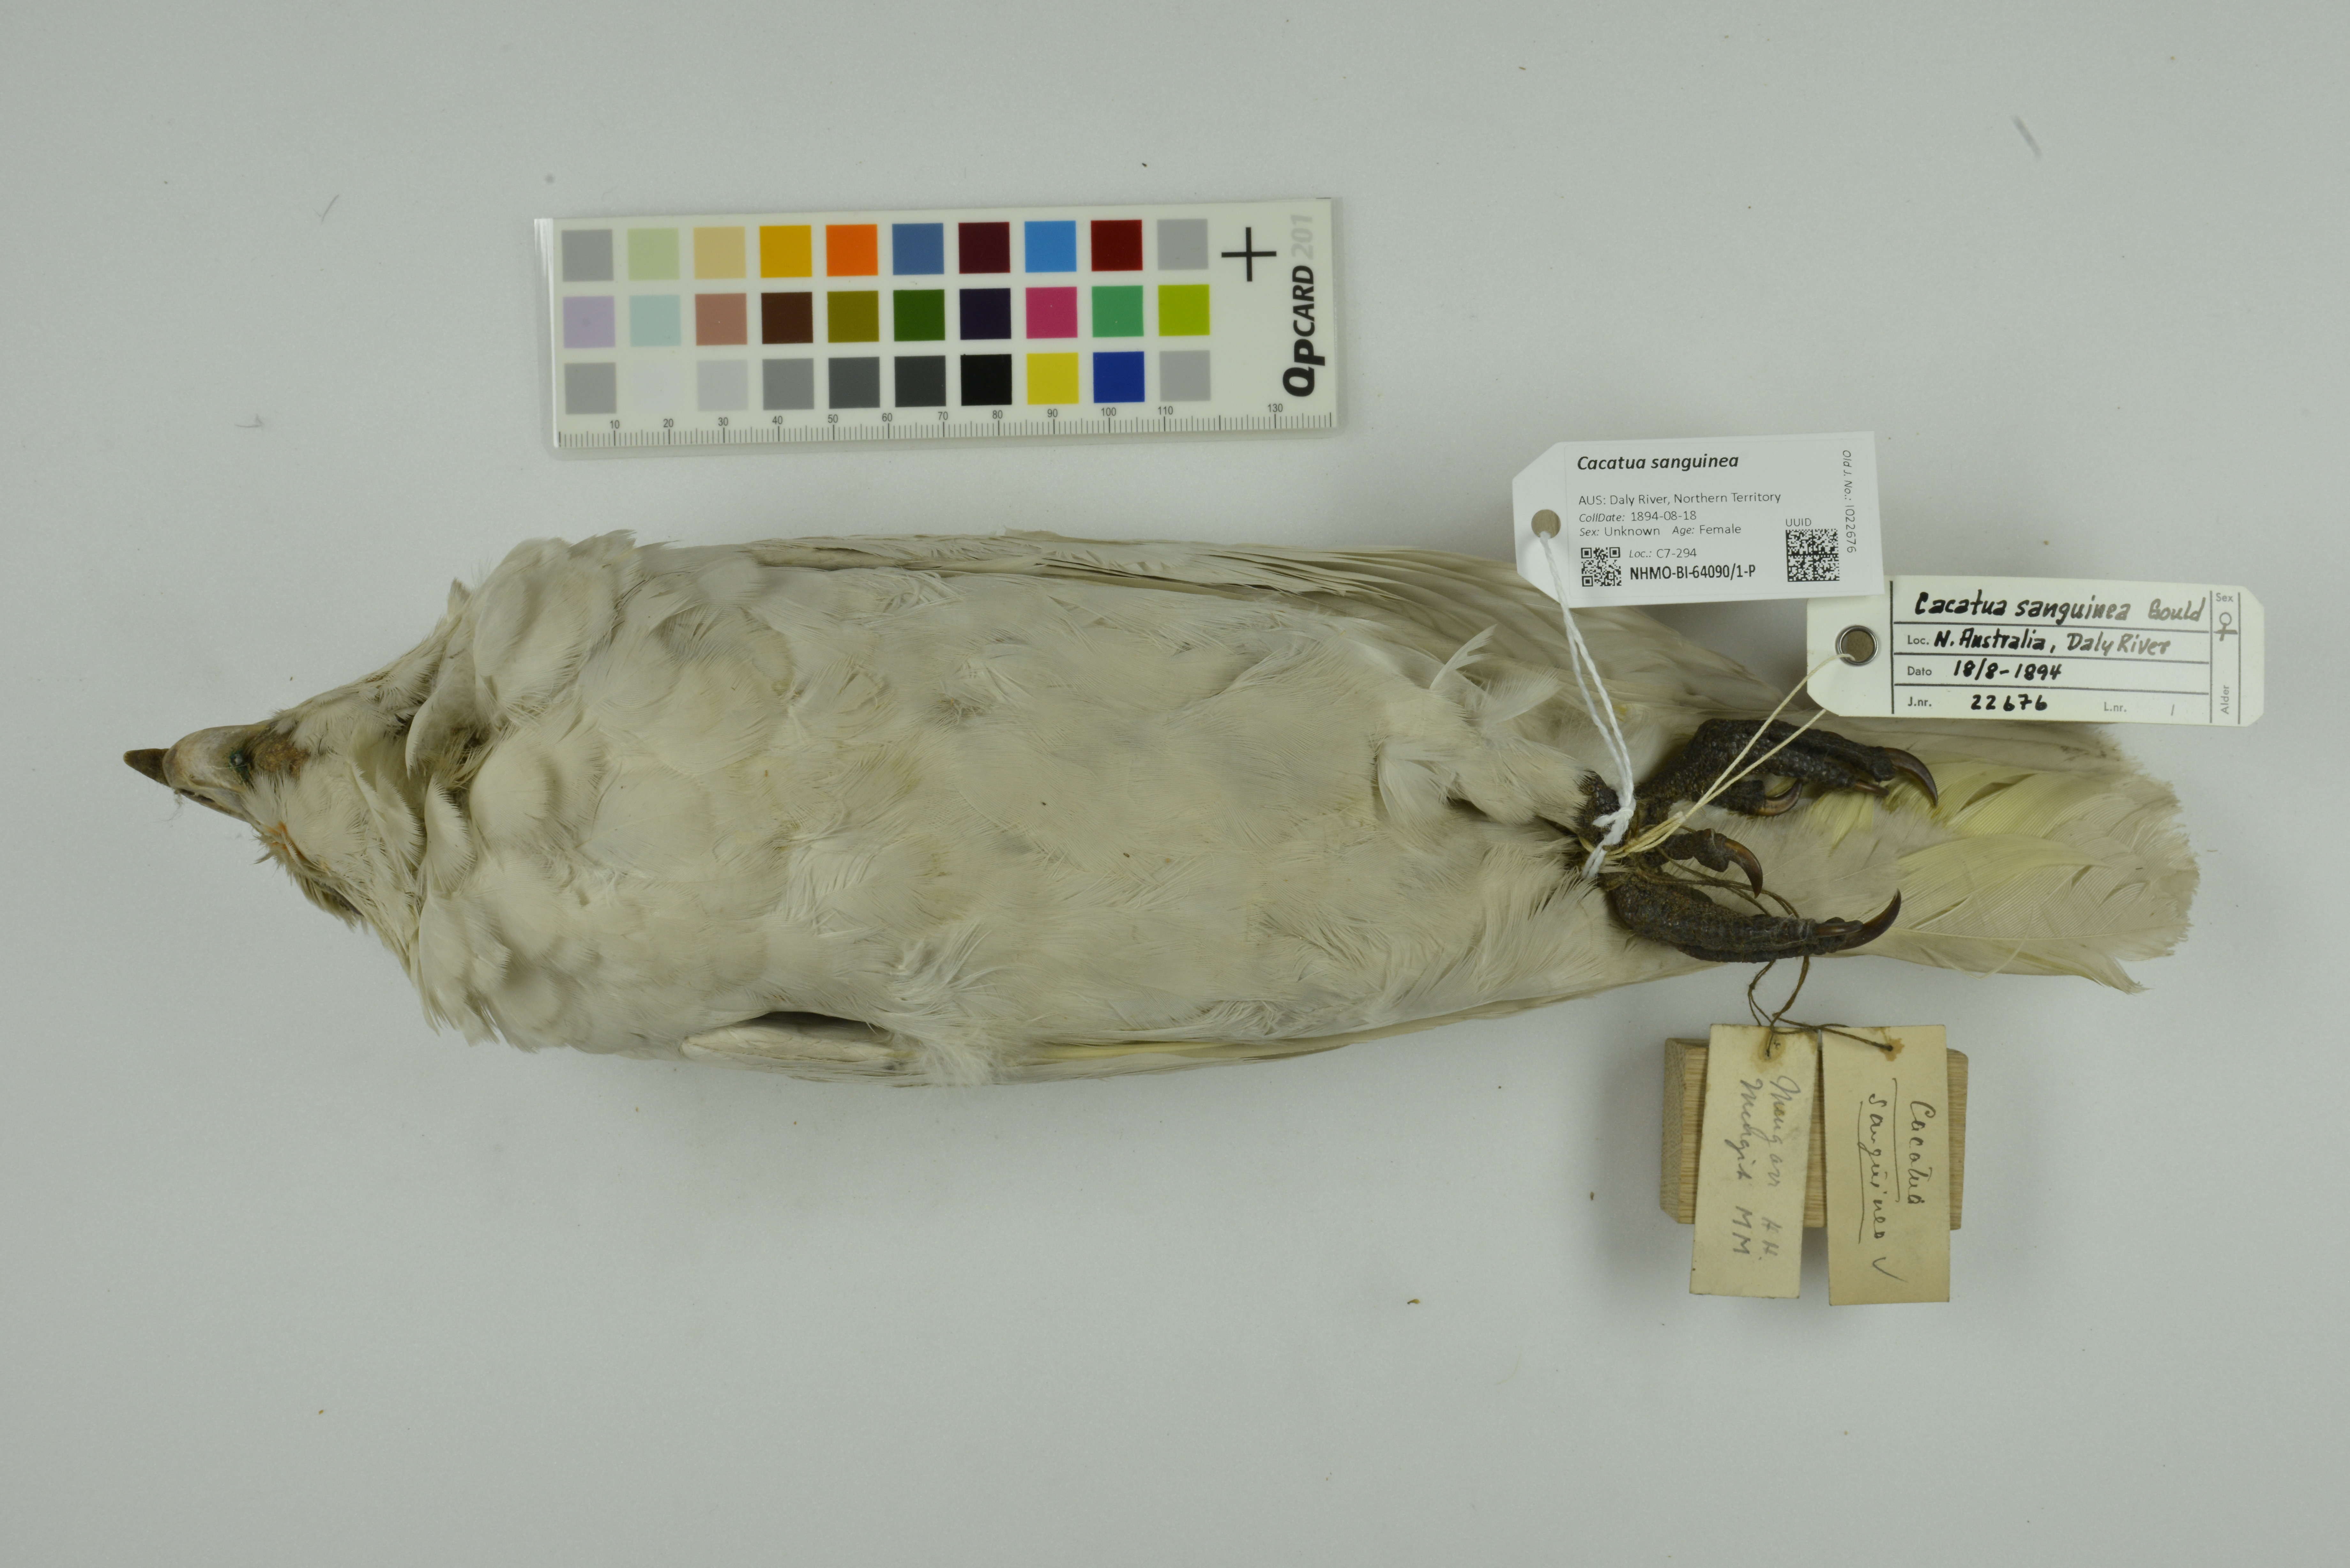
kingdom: Animalia
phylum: Chordata
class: Aves
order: Psittaciformes
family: Psittacidae
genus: Cacatua
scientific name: Cacatua sanguinea
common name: Little corella
